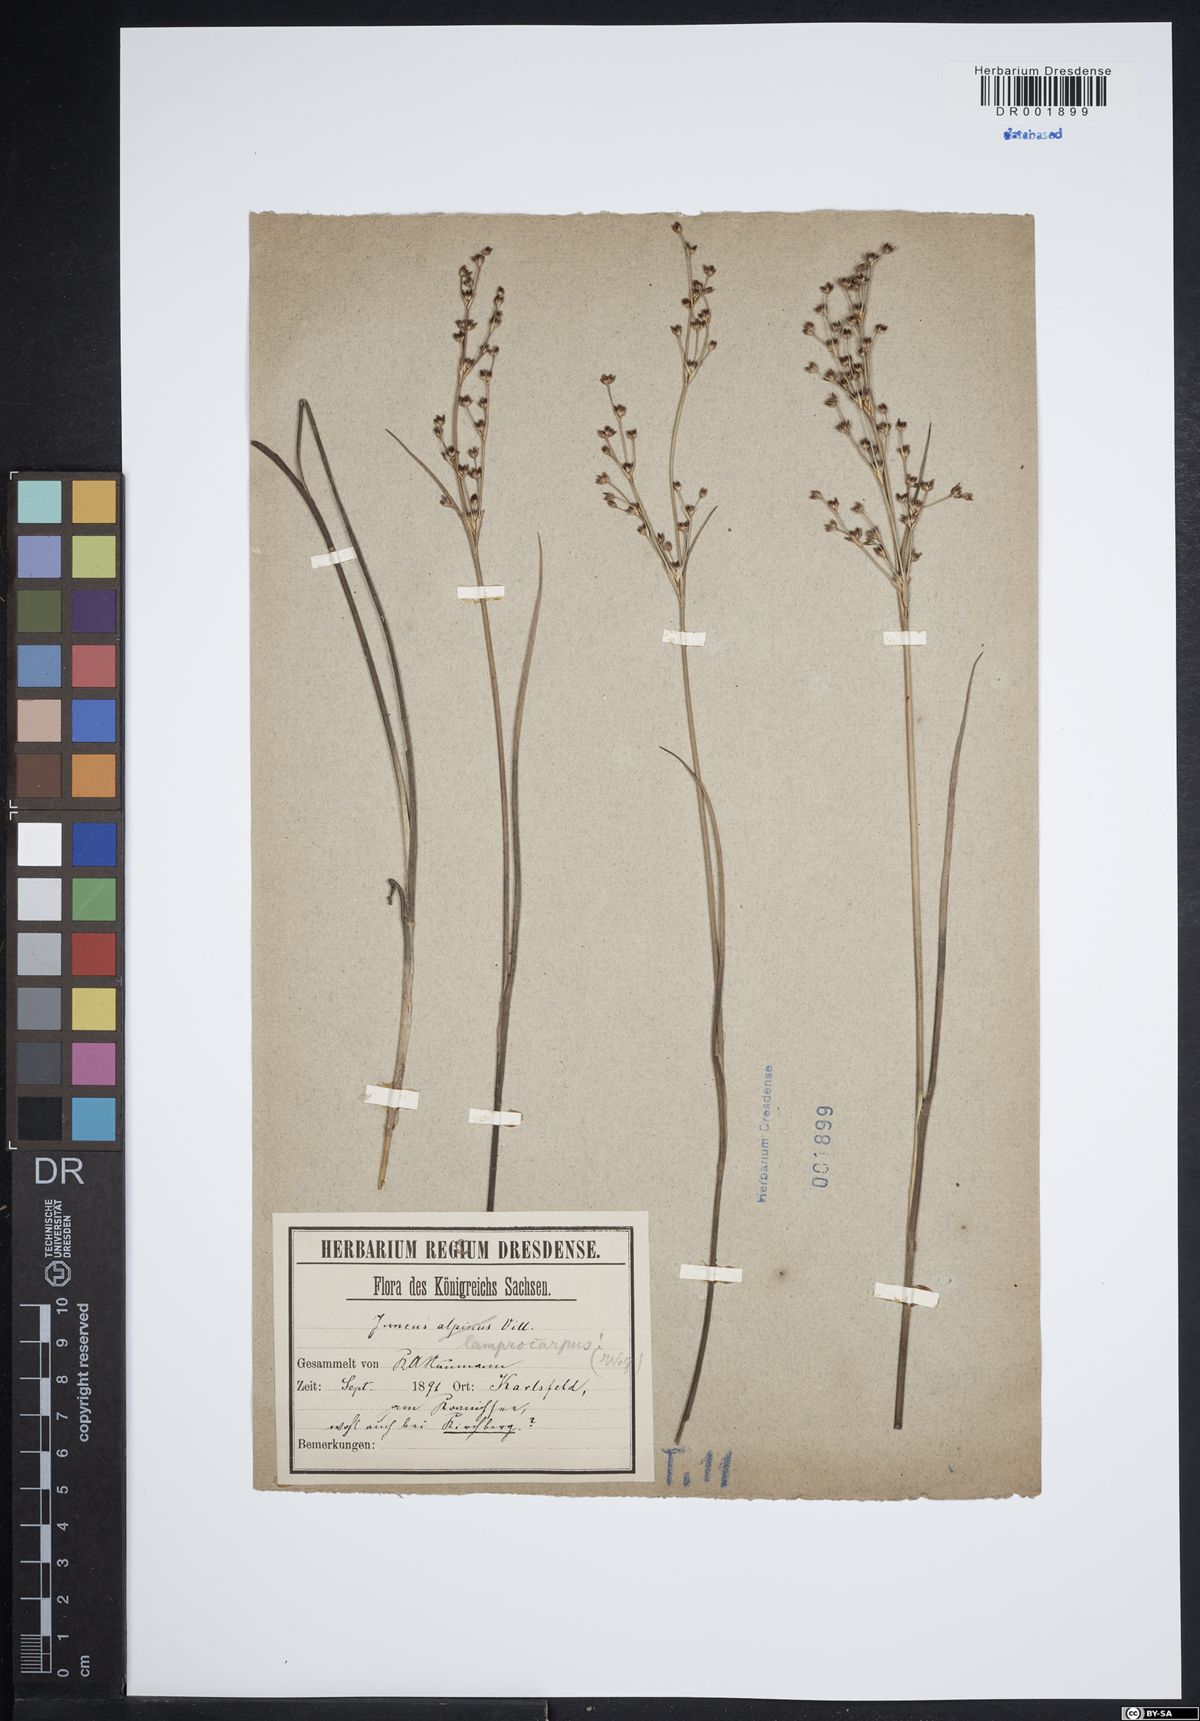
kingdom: Plantae
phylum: Tracheophyta
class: Liliopsida
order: Poales
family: Juncaceae
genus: Juncus
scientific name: Juncus articulatus
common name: Jointed rush
